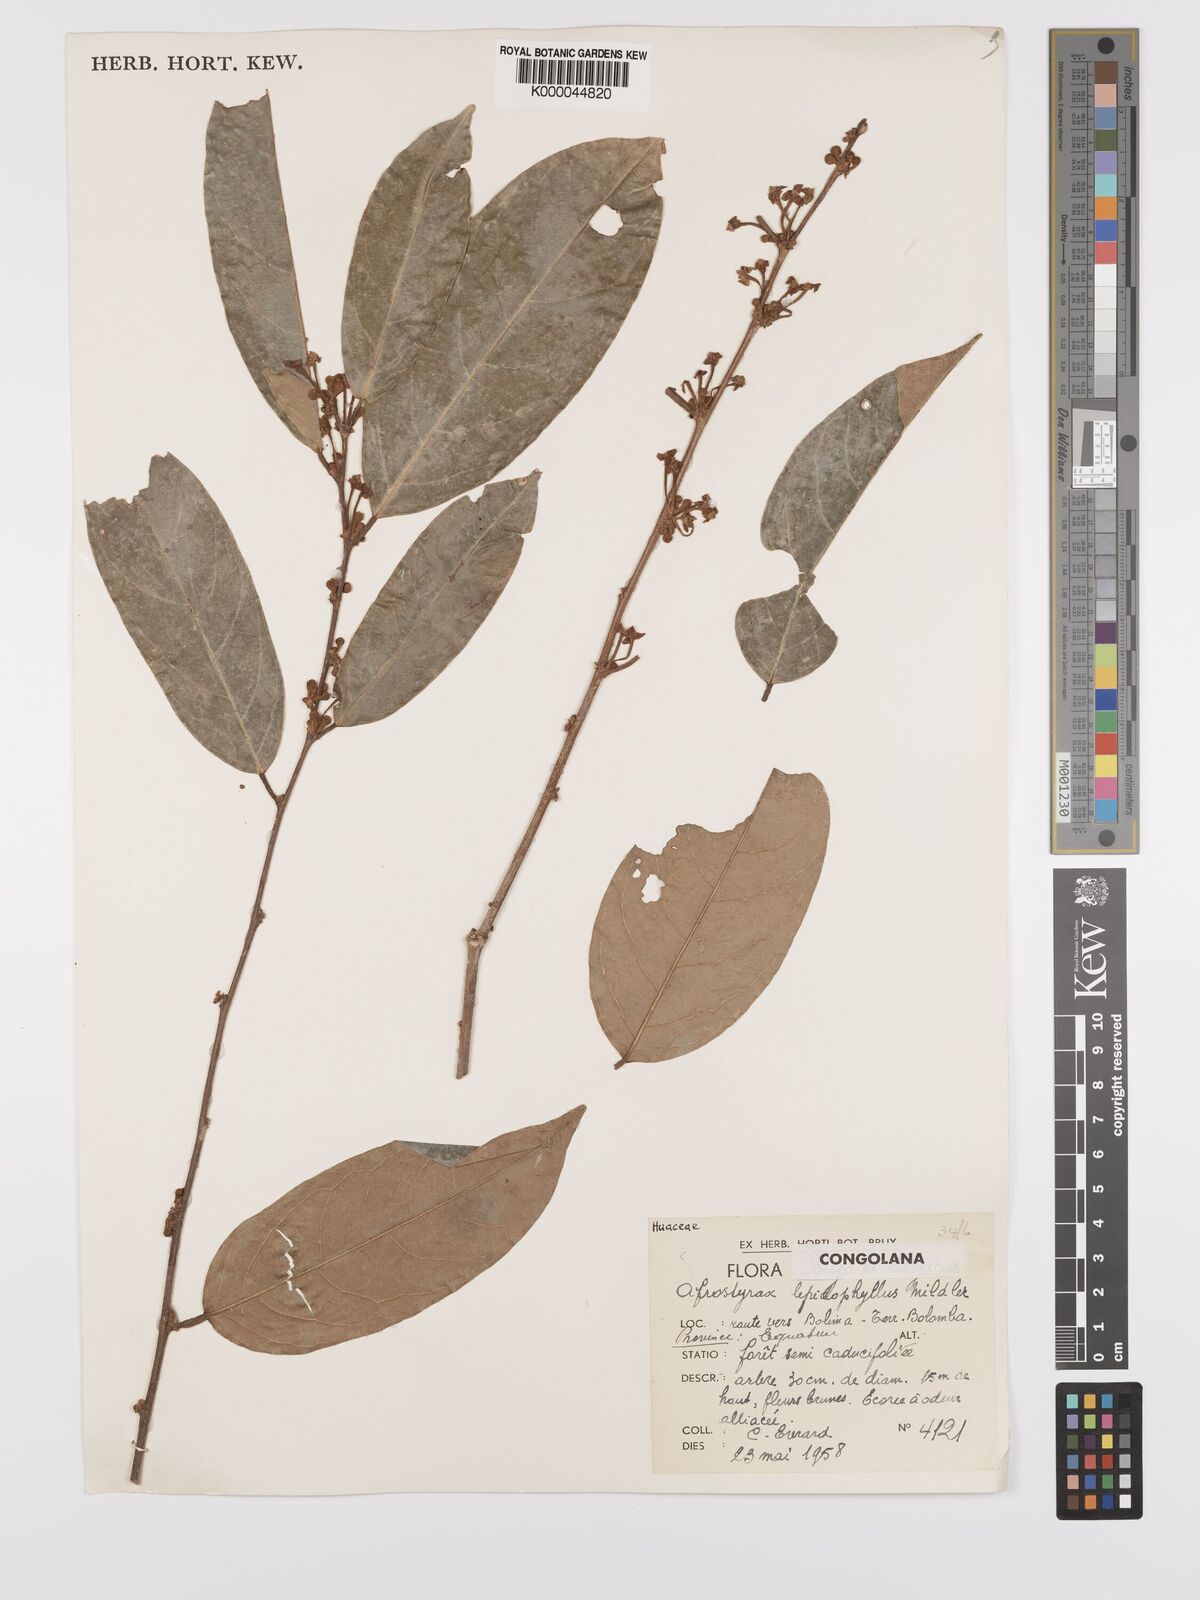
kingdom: Plantae
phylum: Tracheophyta
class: Magnoliopsida
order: Oxalidales
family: Huaceae
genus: Afrostyrax
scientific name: Afrostyrax lepidophyllus
